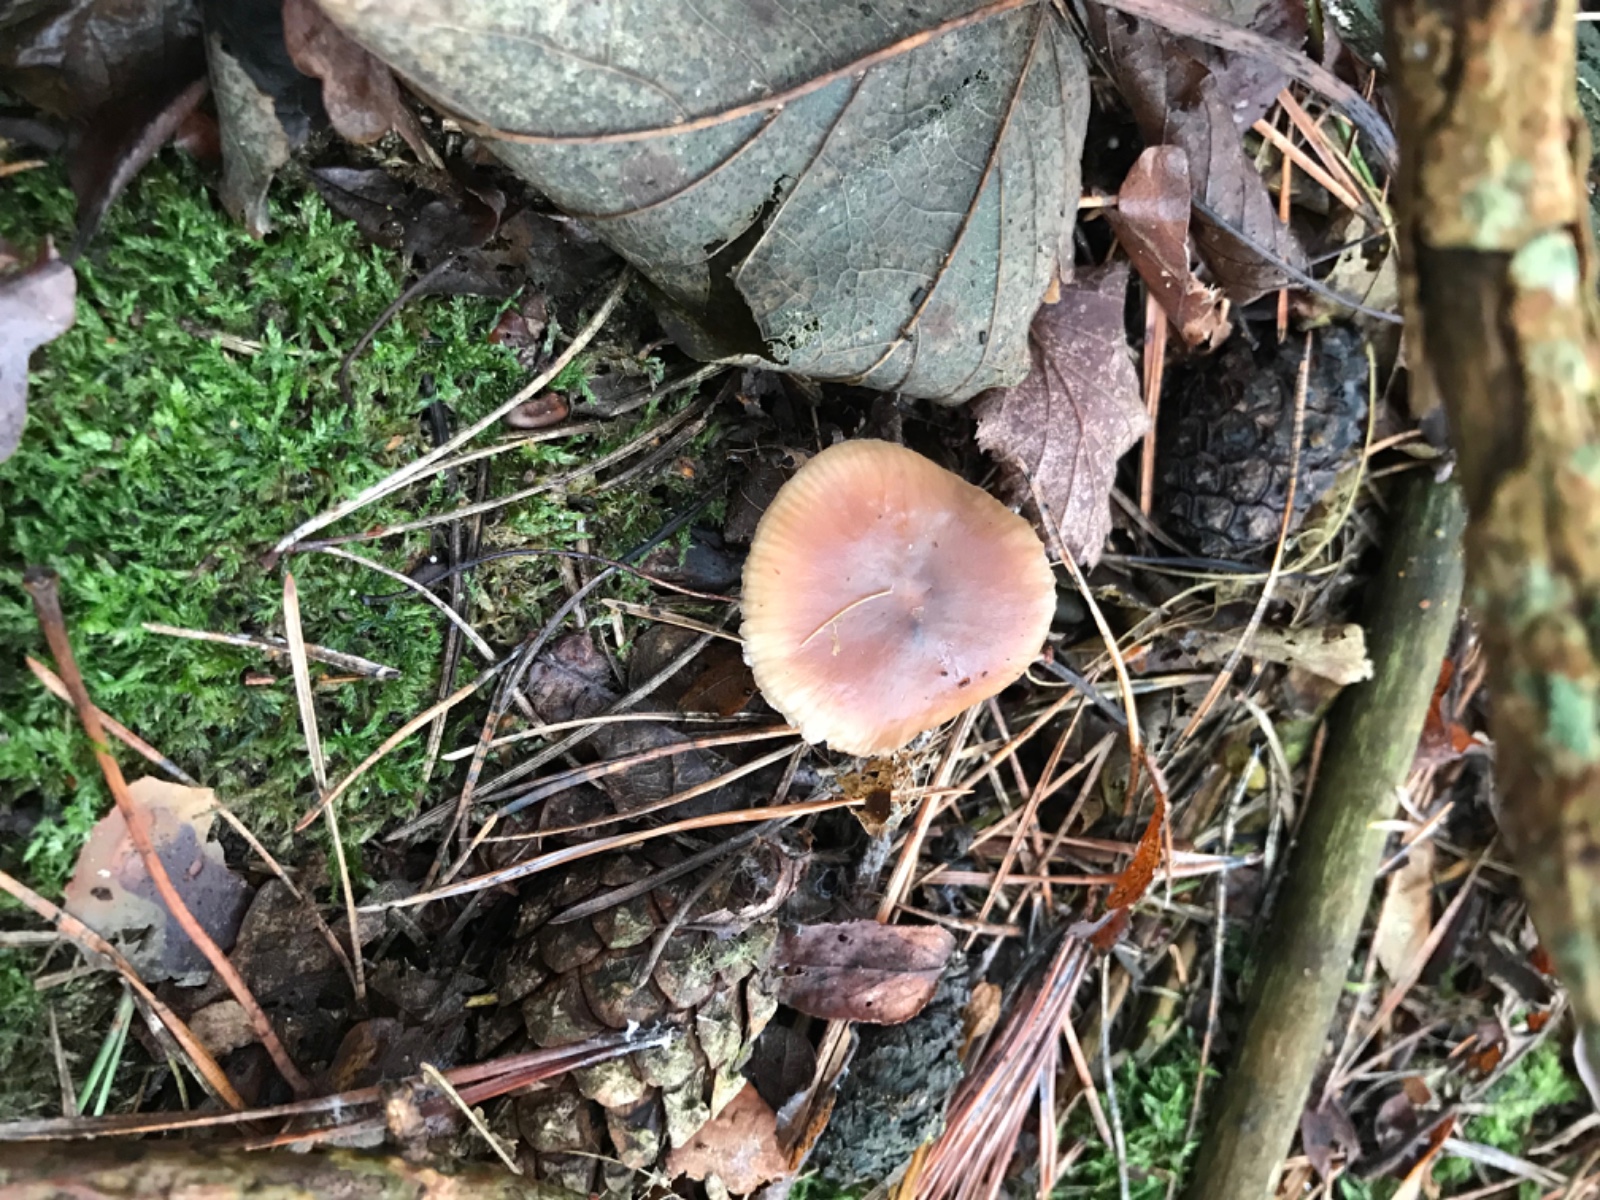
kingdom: Fungi
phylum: Basidiomycota
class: Agaricomycetes
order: Agaricales
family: Omphalotaceae
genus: Rhodocollybia
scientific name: Rhodocollybia asema
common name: horngrå fladhat
